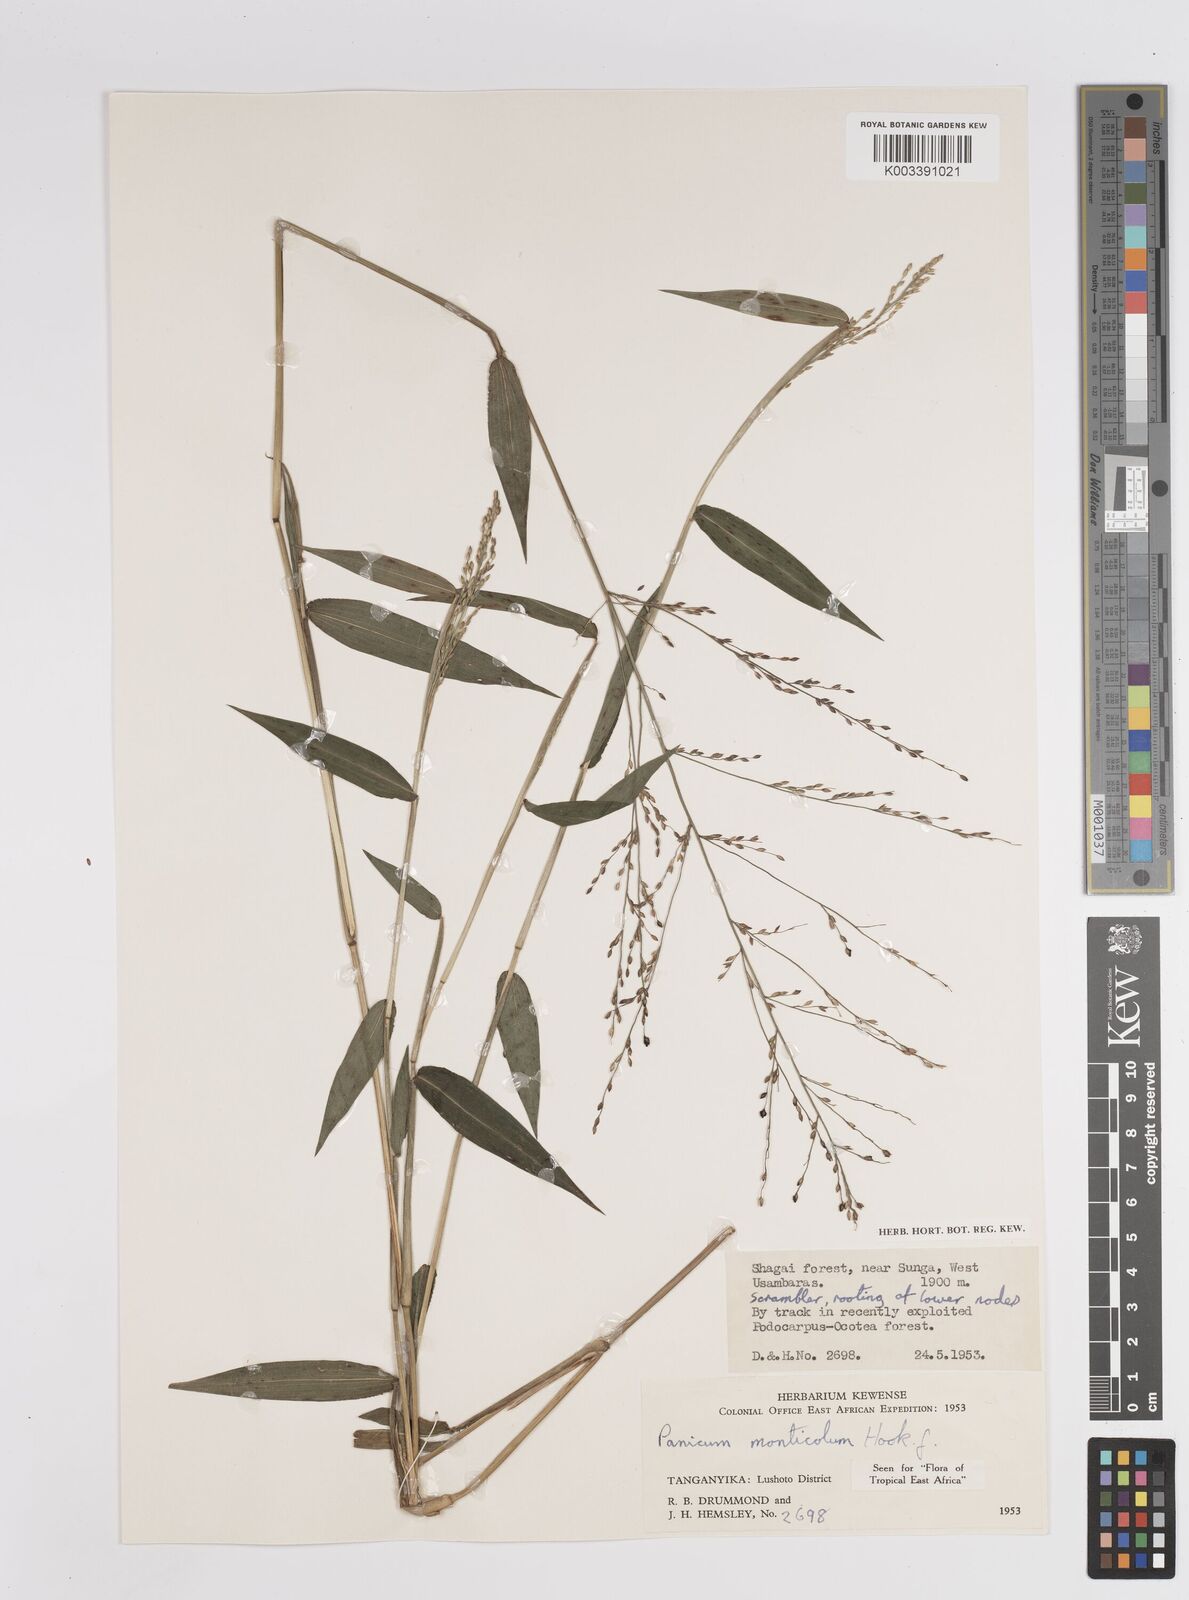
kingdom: Plantae
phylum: Tracheophyta
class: Liliopsida
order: Poales
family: Poaceae
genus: Panicum
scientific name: Panicum monticola
